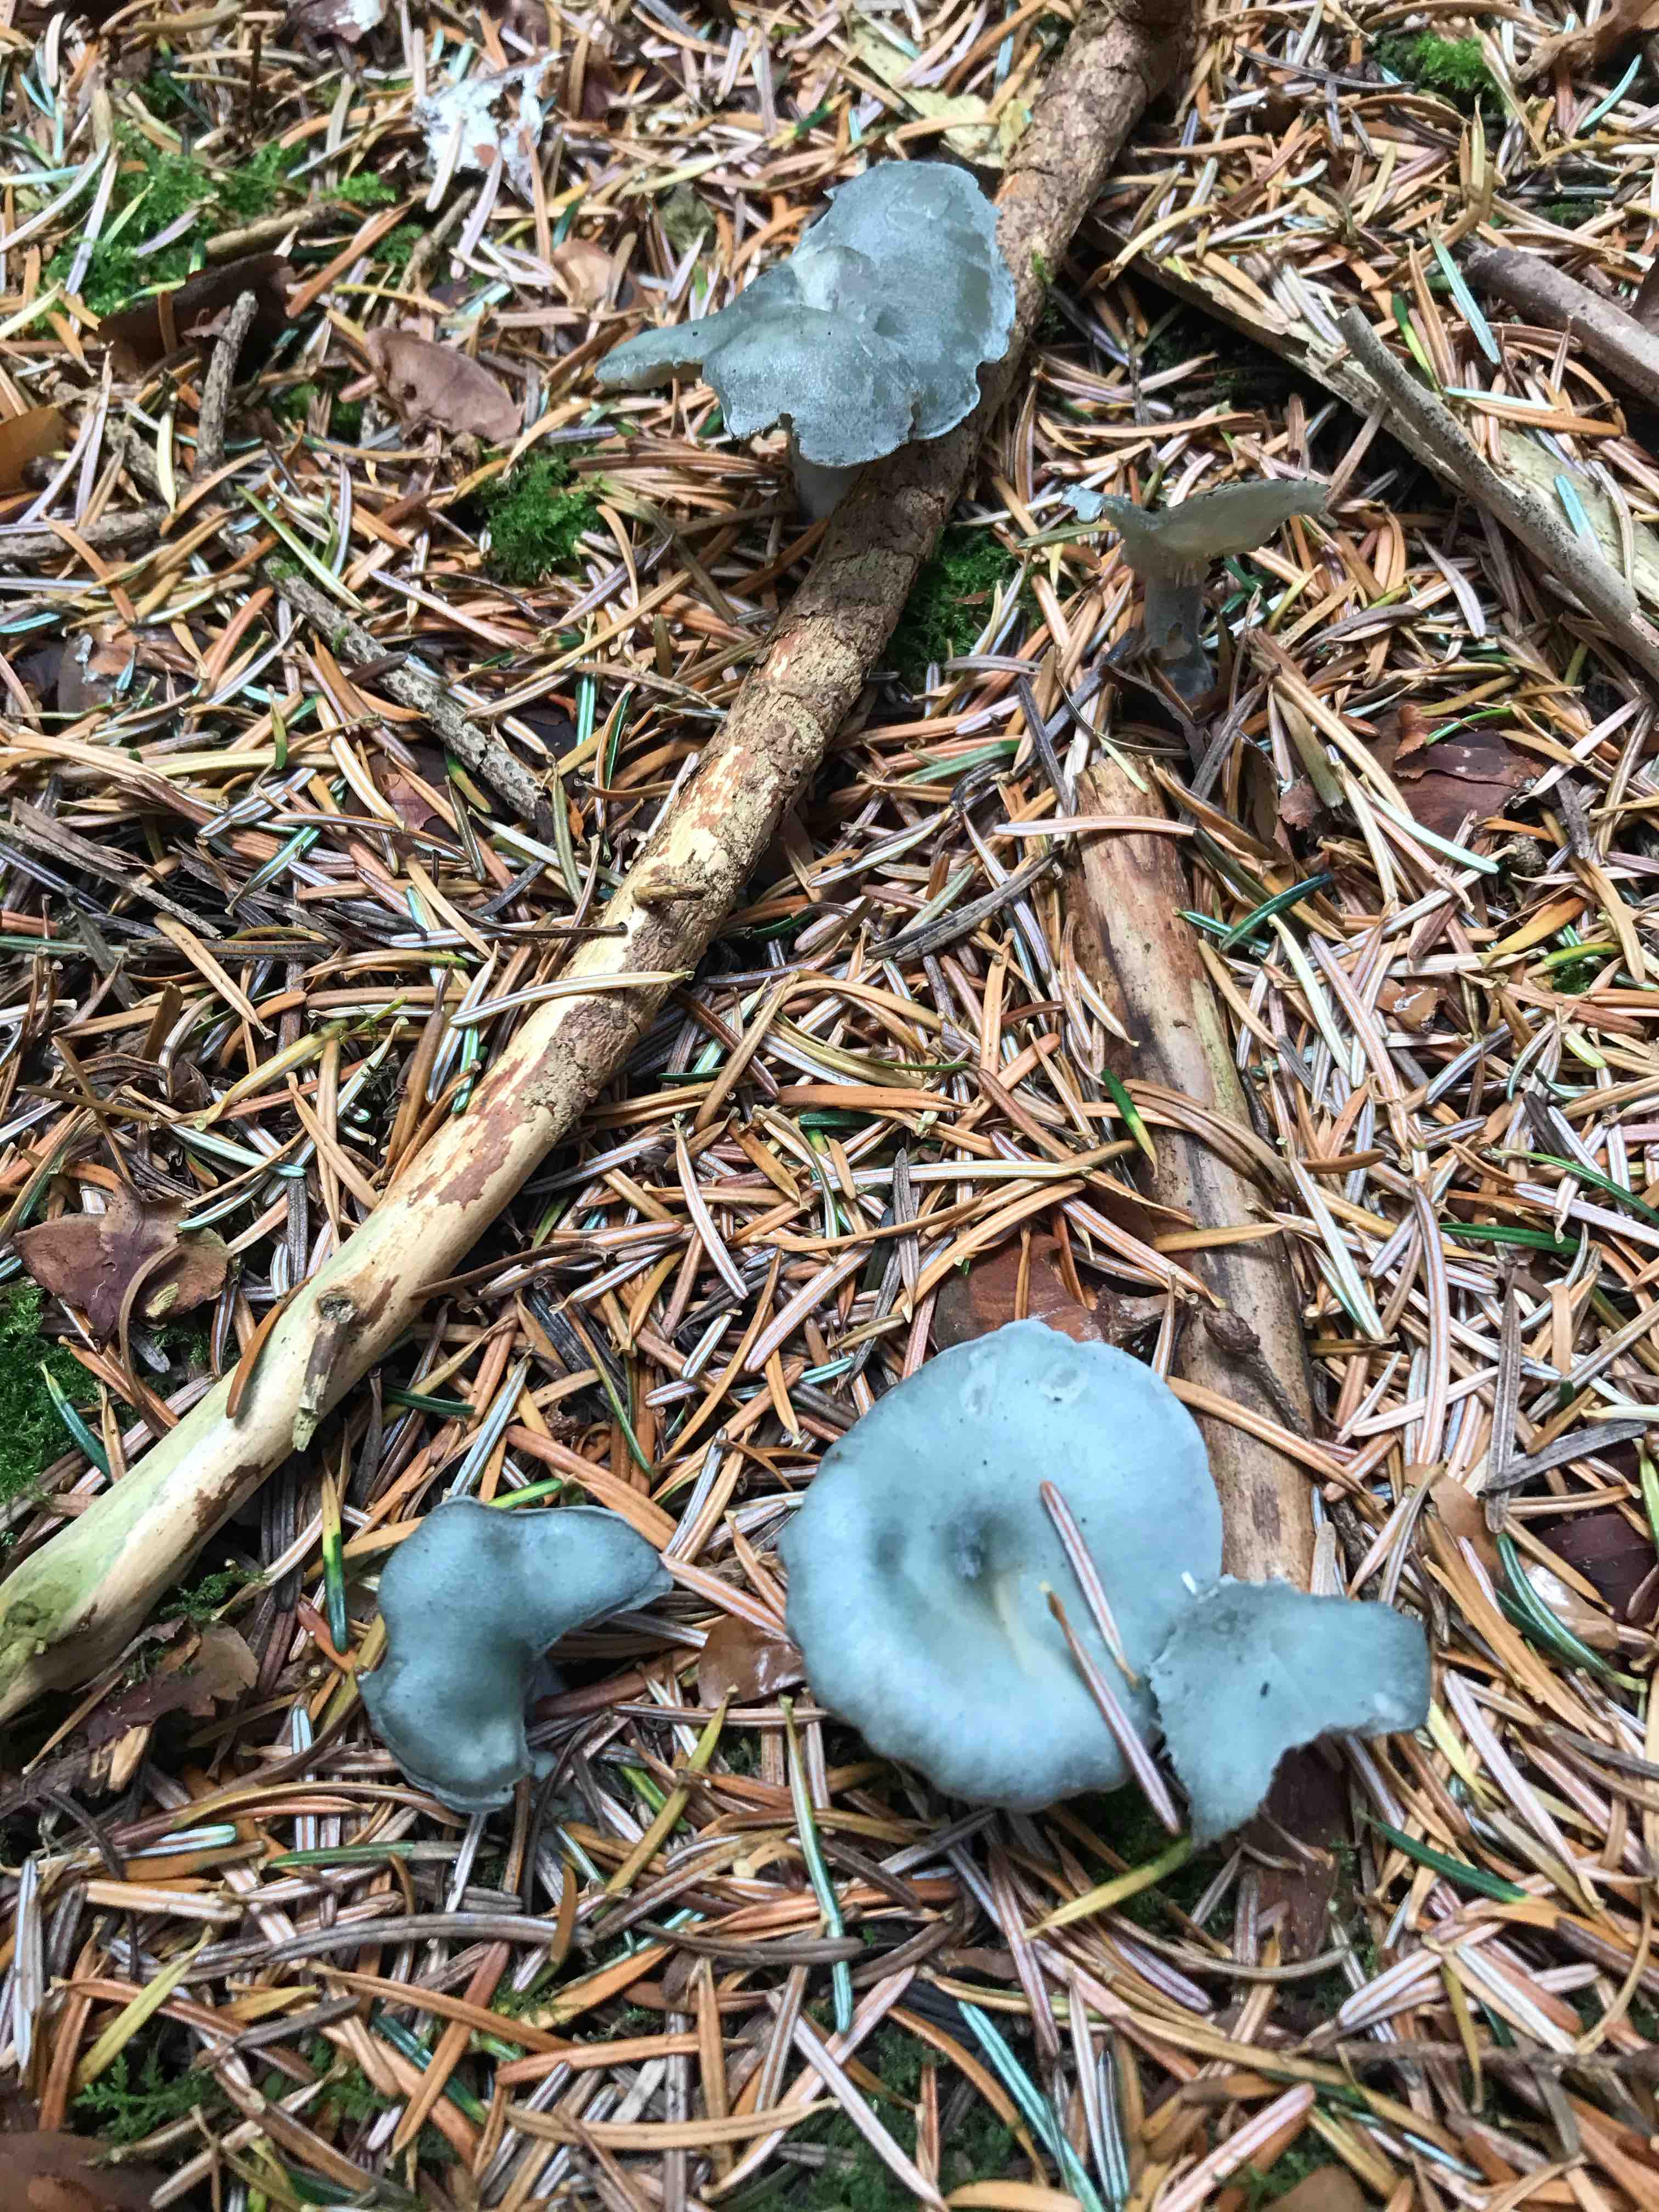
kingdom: Fungi
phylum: Basidiomycota
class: Agaricomycetes
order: Agaricales
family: Tricholomataceae
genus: Clitocybe
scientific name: Clitocybe odora
